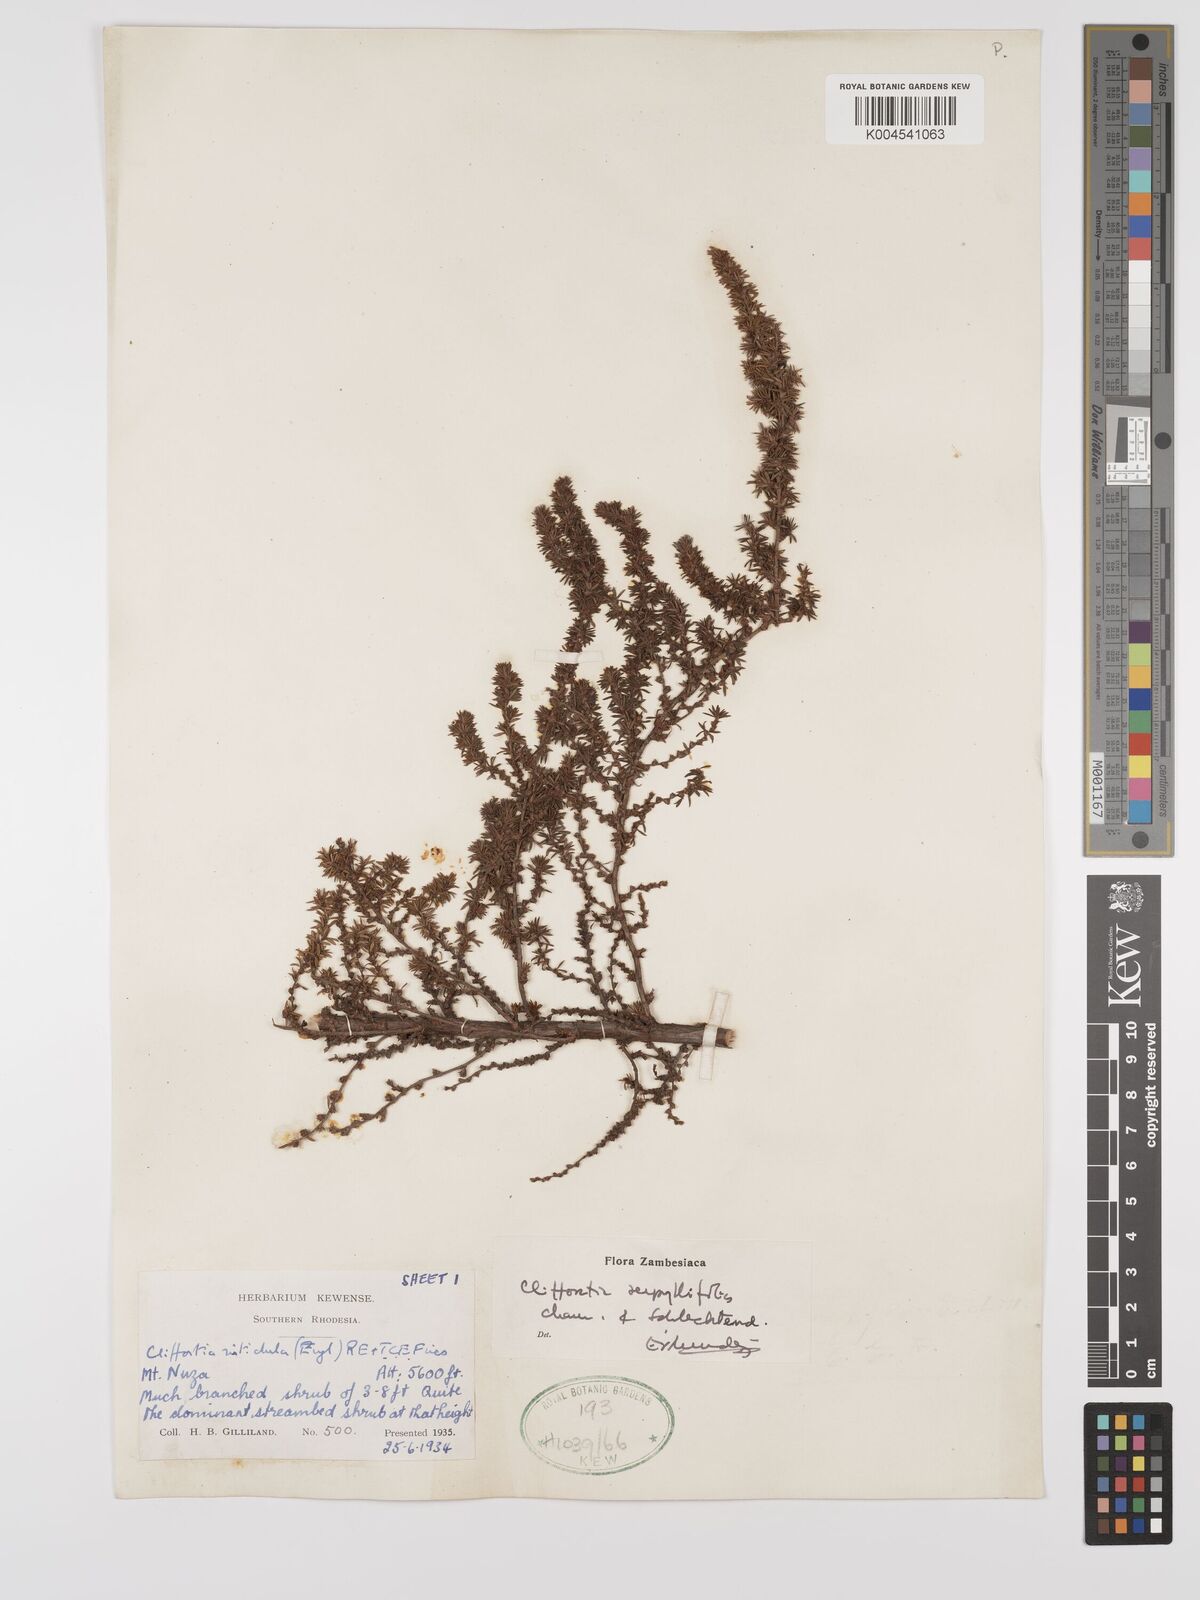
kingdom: Plantae
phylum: Tracheophyta
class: Magnoliopsida
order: Rosales
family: Rosaceae
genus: Cliffortia
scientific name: Cliffortia linearifolia
